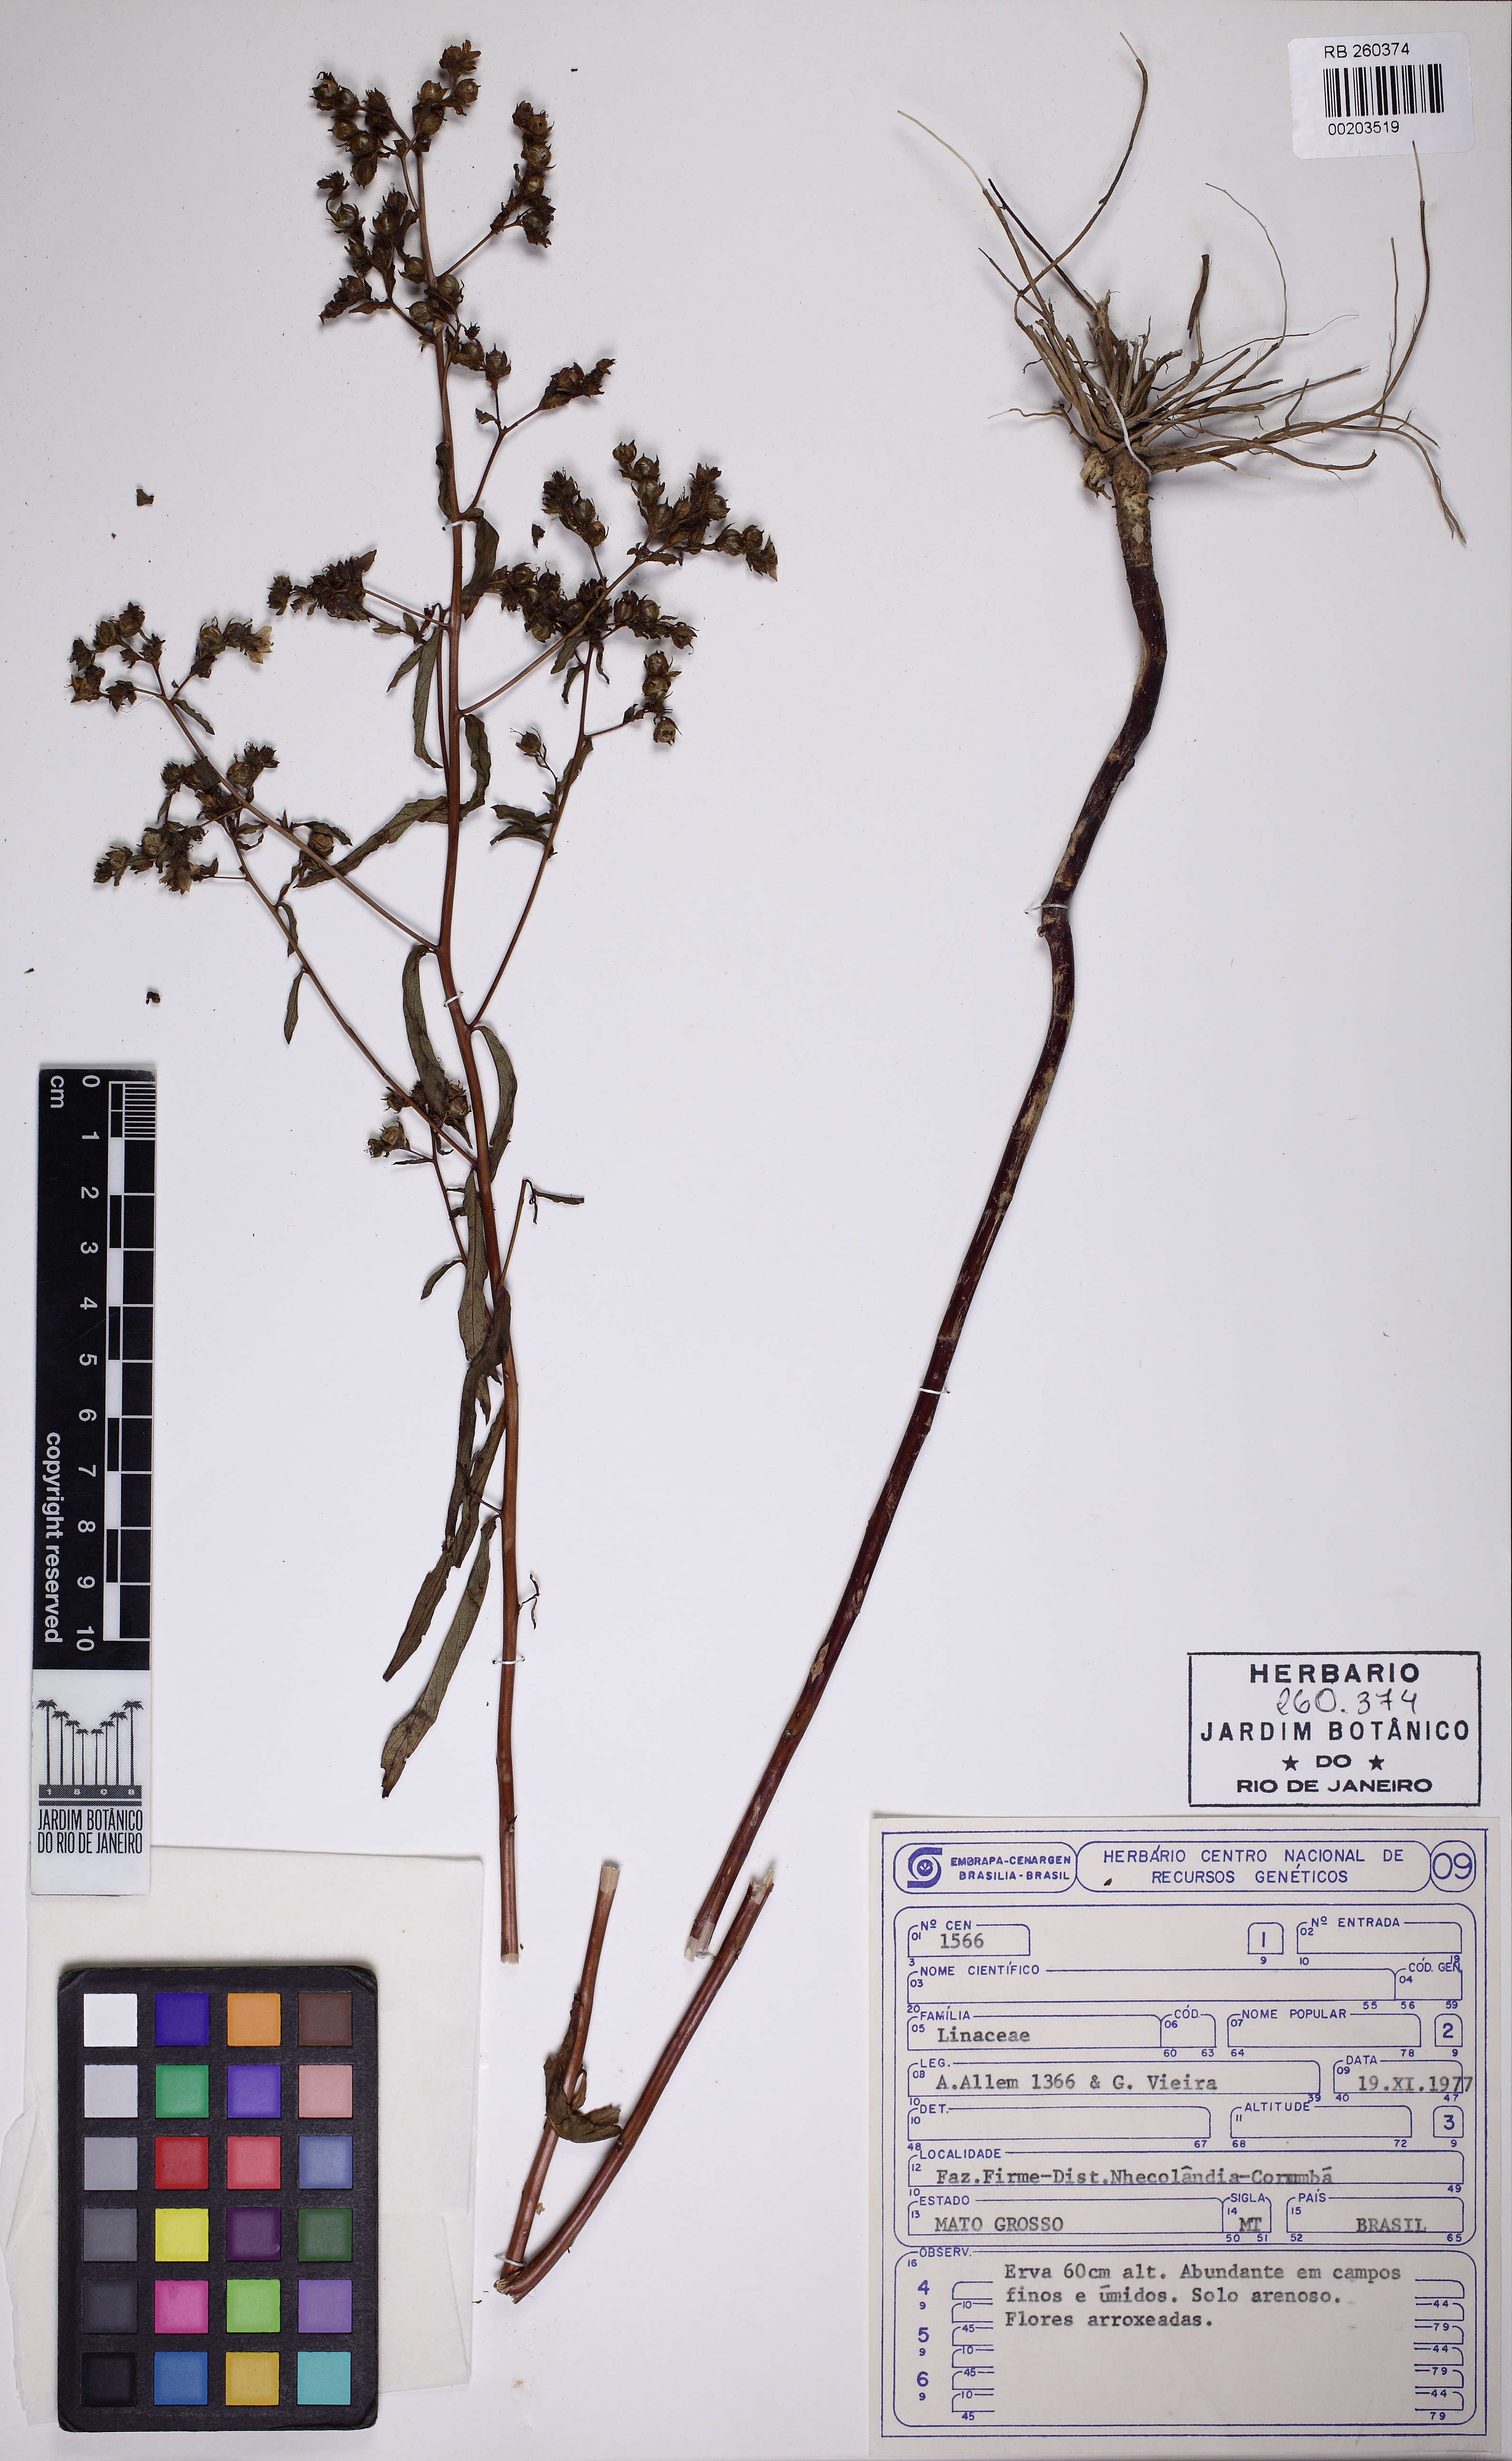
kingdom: Plantae
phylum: Tracheophyta
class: Magnoliopsida
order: Lamiales
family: Lamiaceae
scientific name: Lamiaceae
